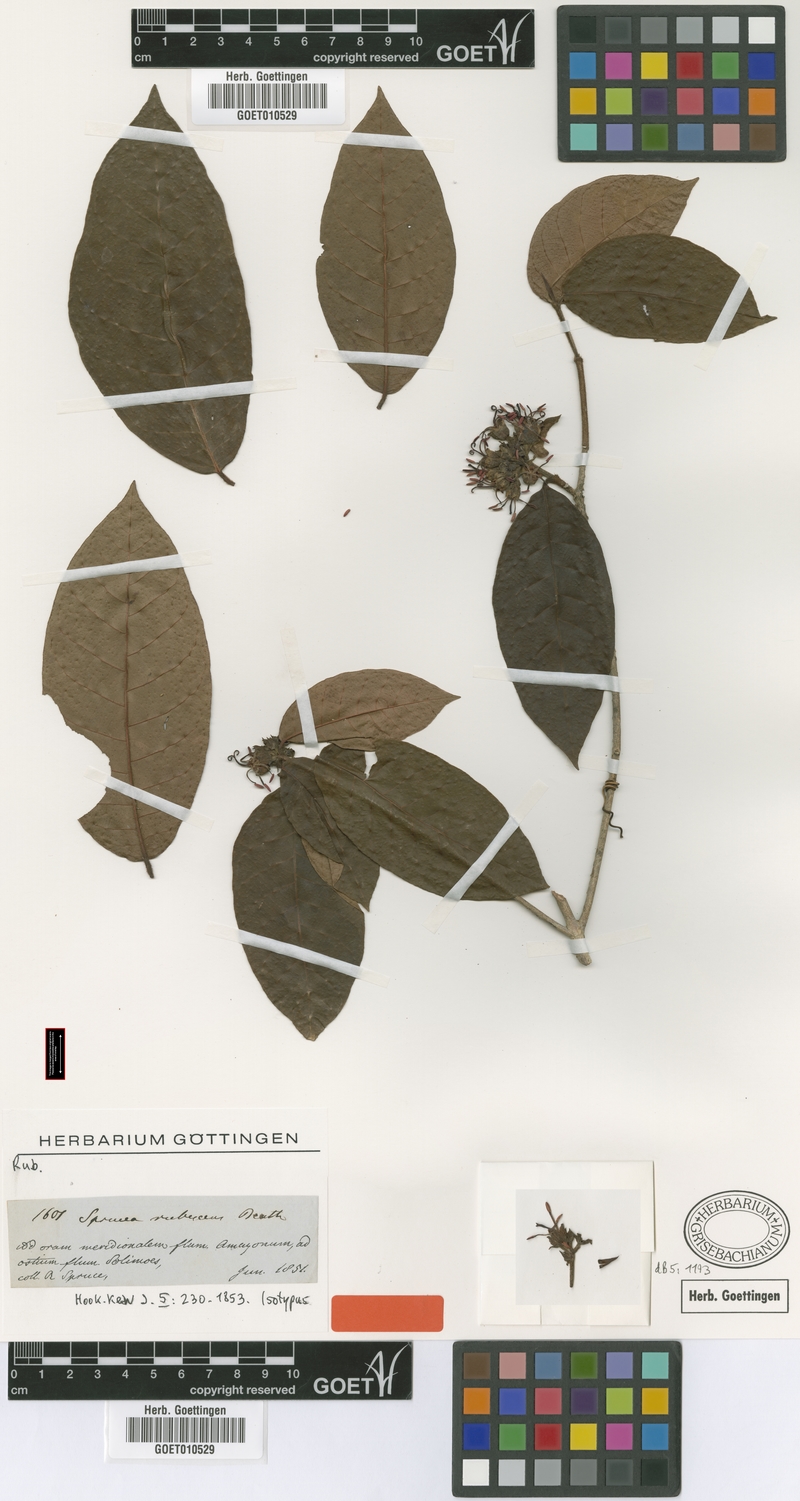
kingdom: Plantae
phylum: Tracheophyta
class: Magnoliopsida
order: Gentianales
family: Rubiaceae
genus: Simira
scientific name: Simira rubescens
